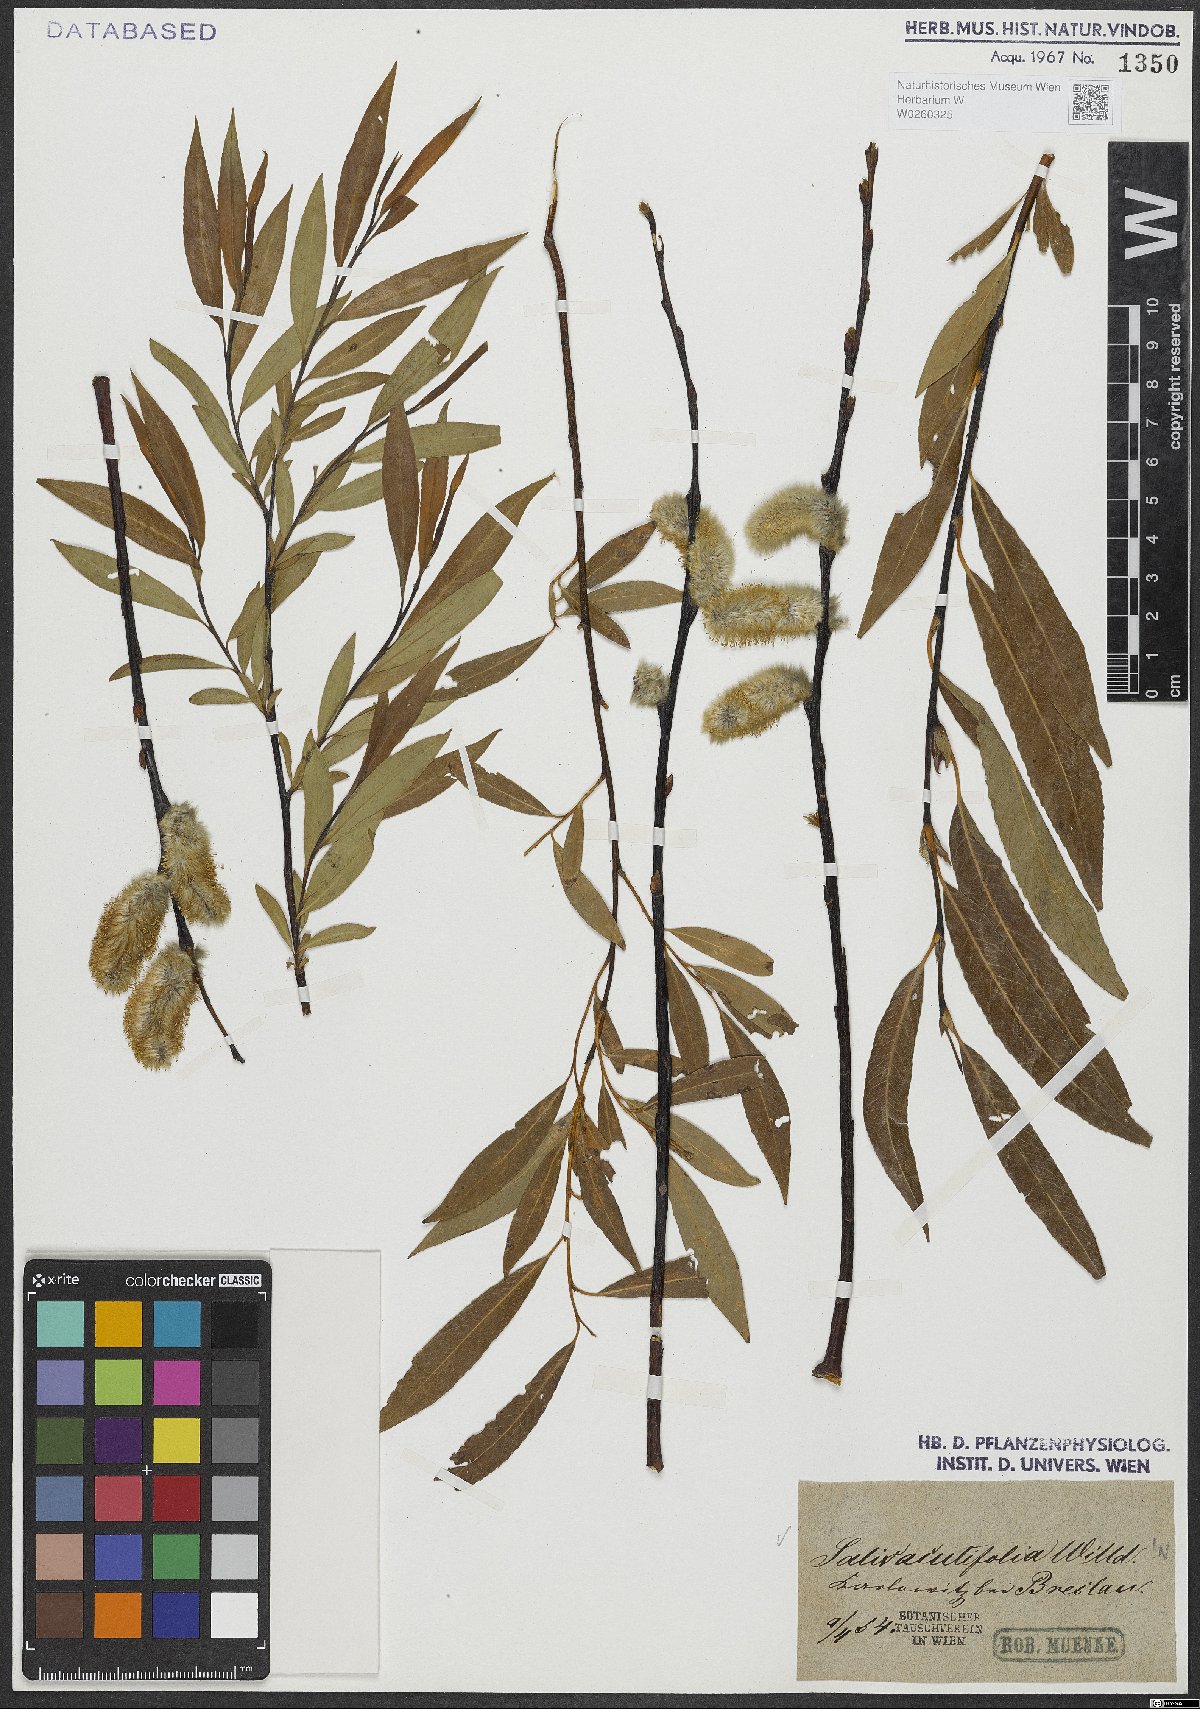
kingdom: Plantae
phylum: Tracheophyta
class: Magnoliopsida
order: Malpighiales
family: Salicaceae
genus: Salix
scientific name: Salix acutifolia
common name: Siberian violet-willow
